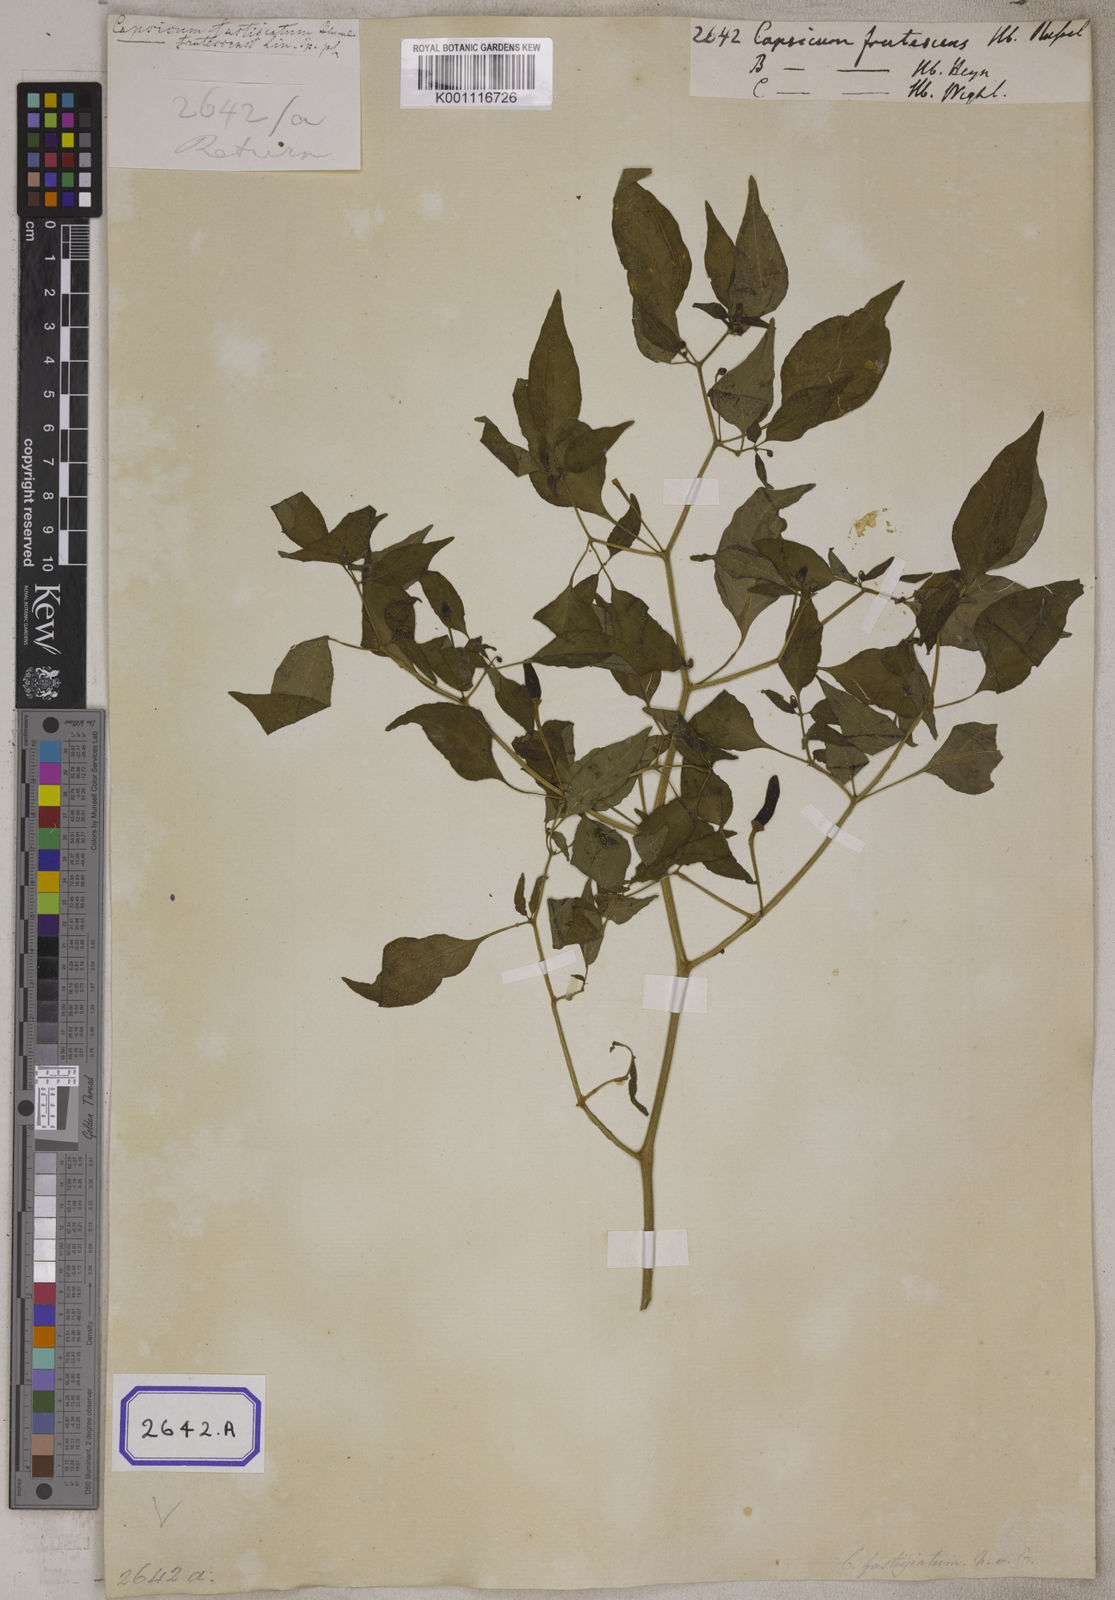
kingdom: Plantae
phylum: Tracheophyta
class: Magnoliopsida
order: Solanales
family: Solanaceae
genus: Capsicum
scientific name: Capsicum frutescens
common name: Bird pepper
